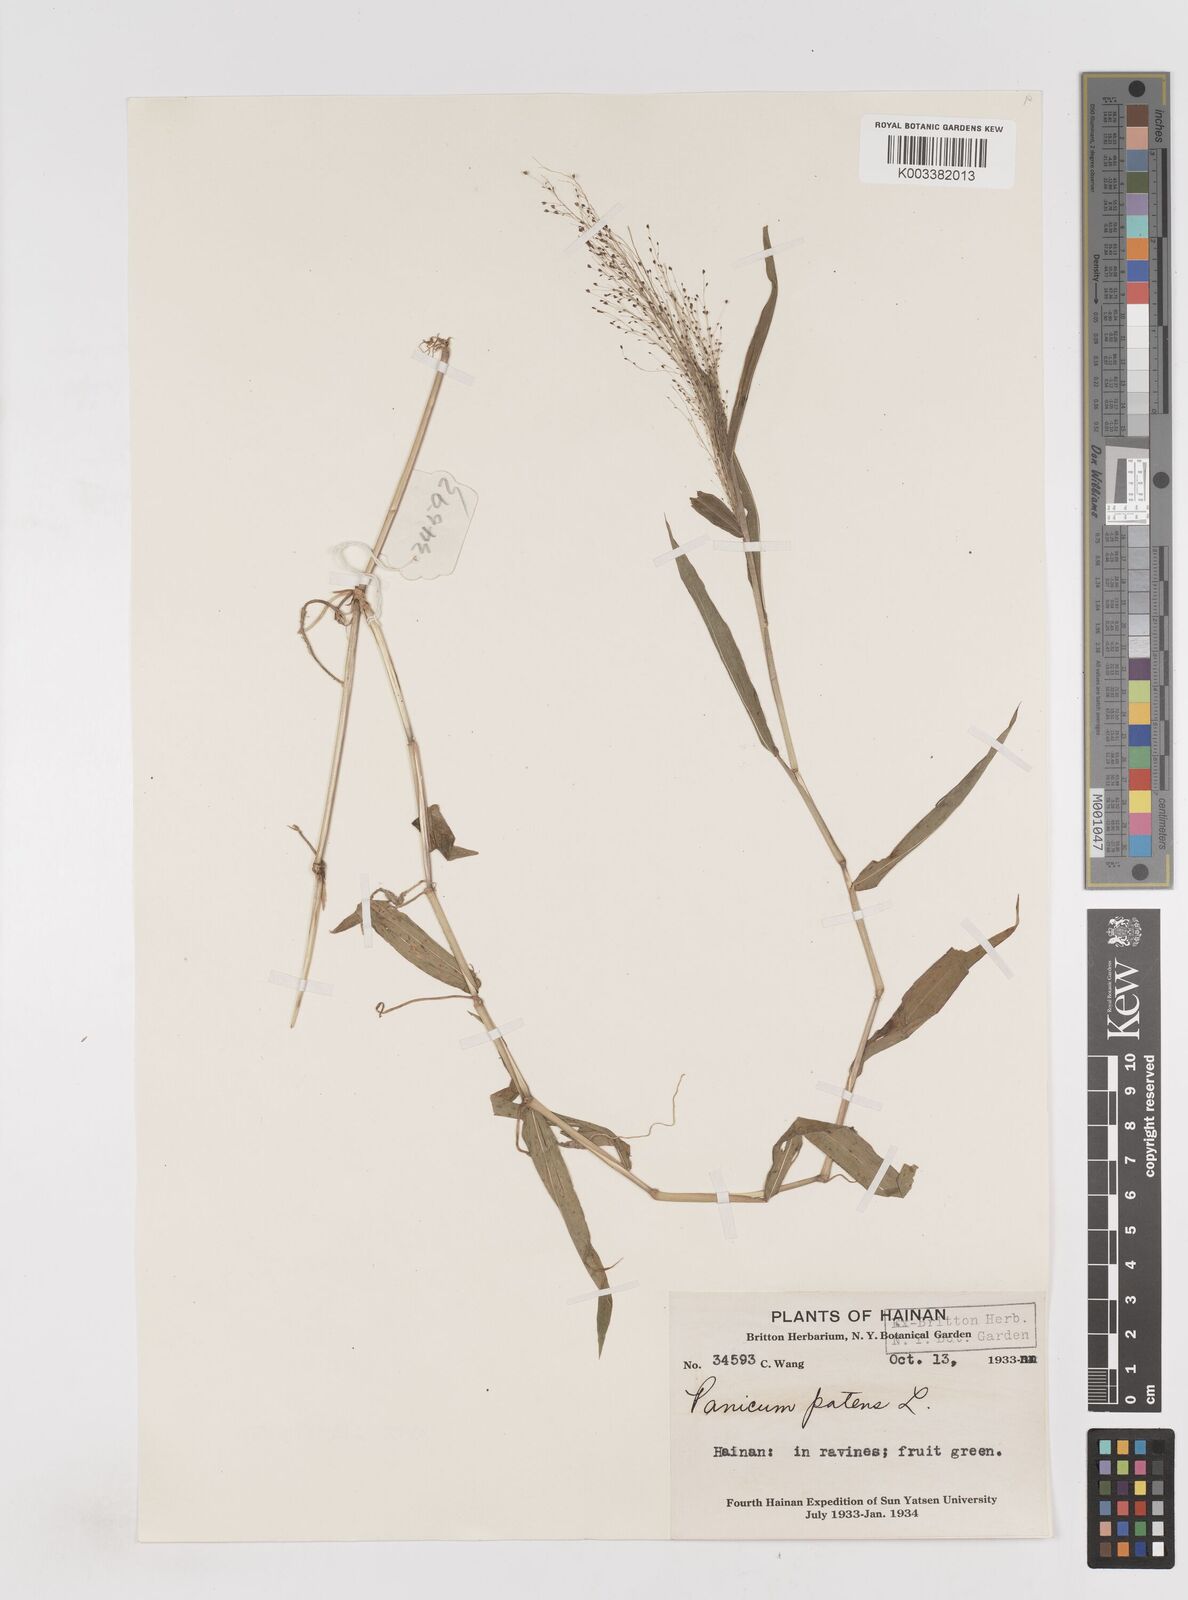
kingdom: Plantae
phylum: Tracheophyta
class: Liliopsida
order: Poales
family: Poaceae
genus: Cyrtococcum
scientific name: Cyrtococcum patens
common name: Broad-leaved bowgrass
